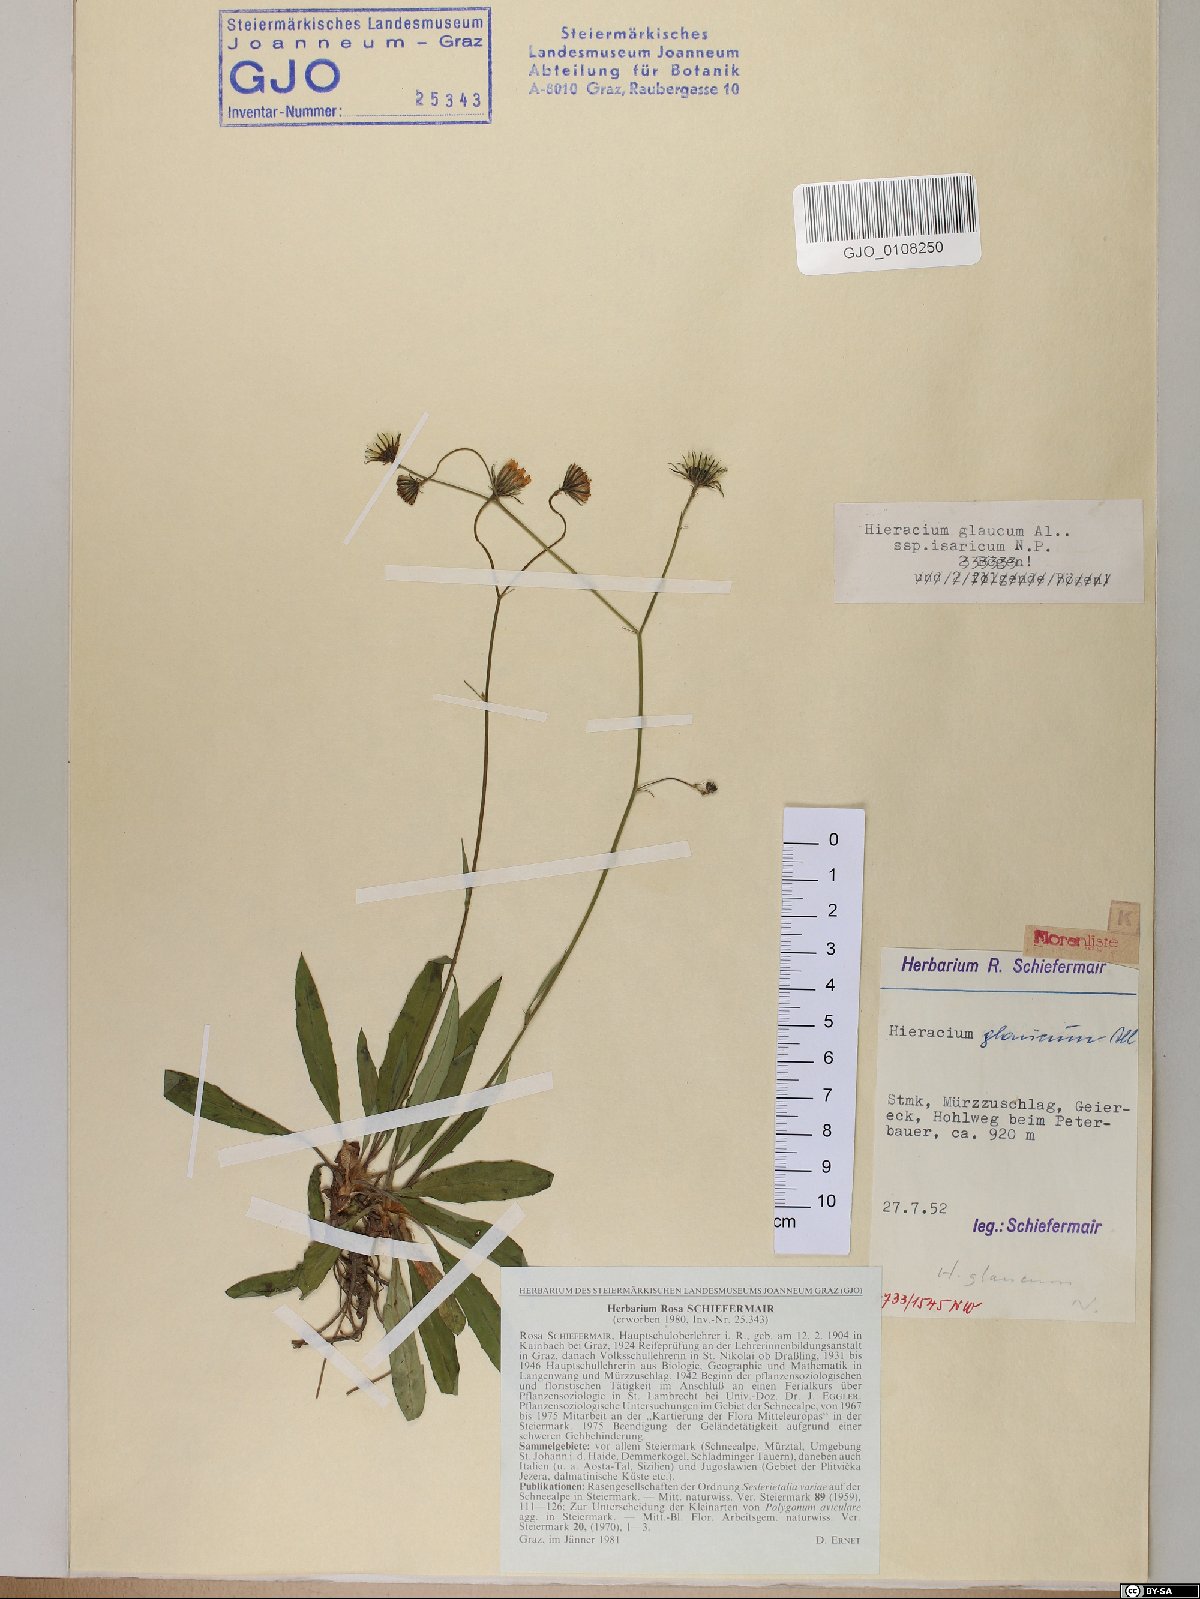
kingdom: Plantae
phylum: Tracheophyta
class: Magnoliopsida
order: Asterales
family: Asteraceae
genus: Hieracium
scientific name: Hieracium glaucum
